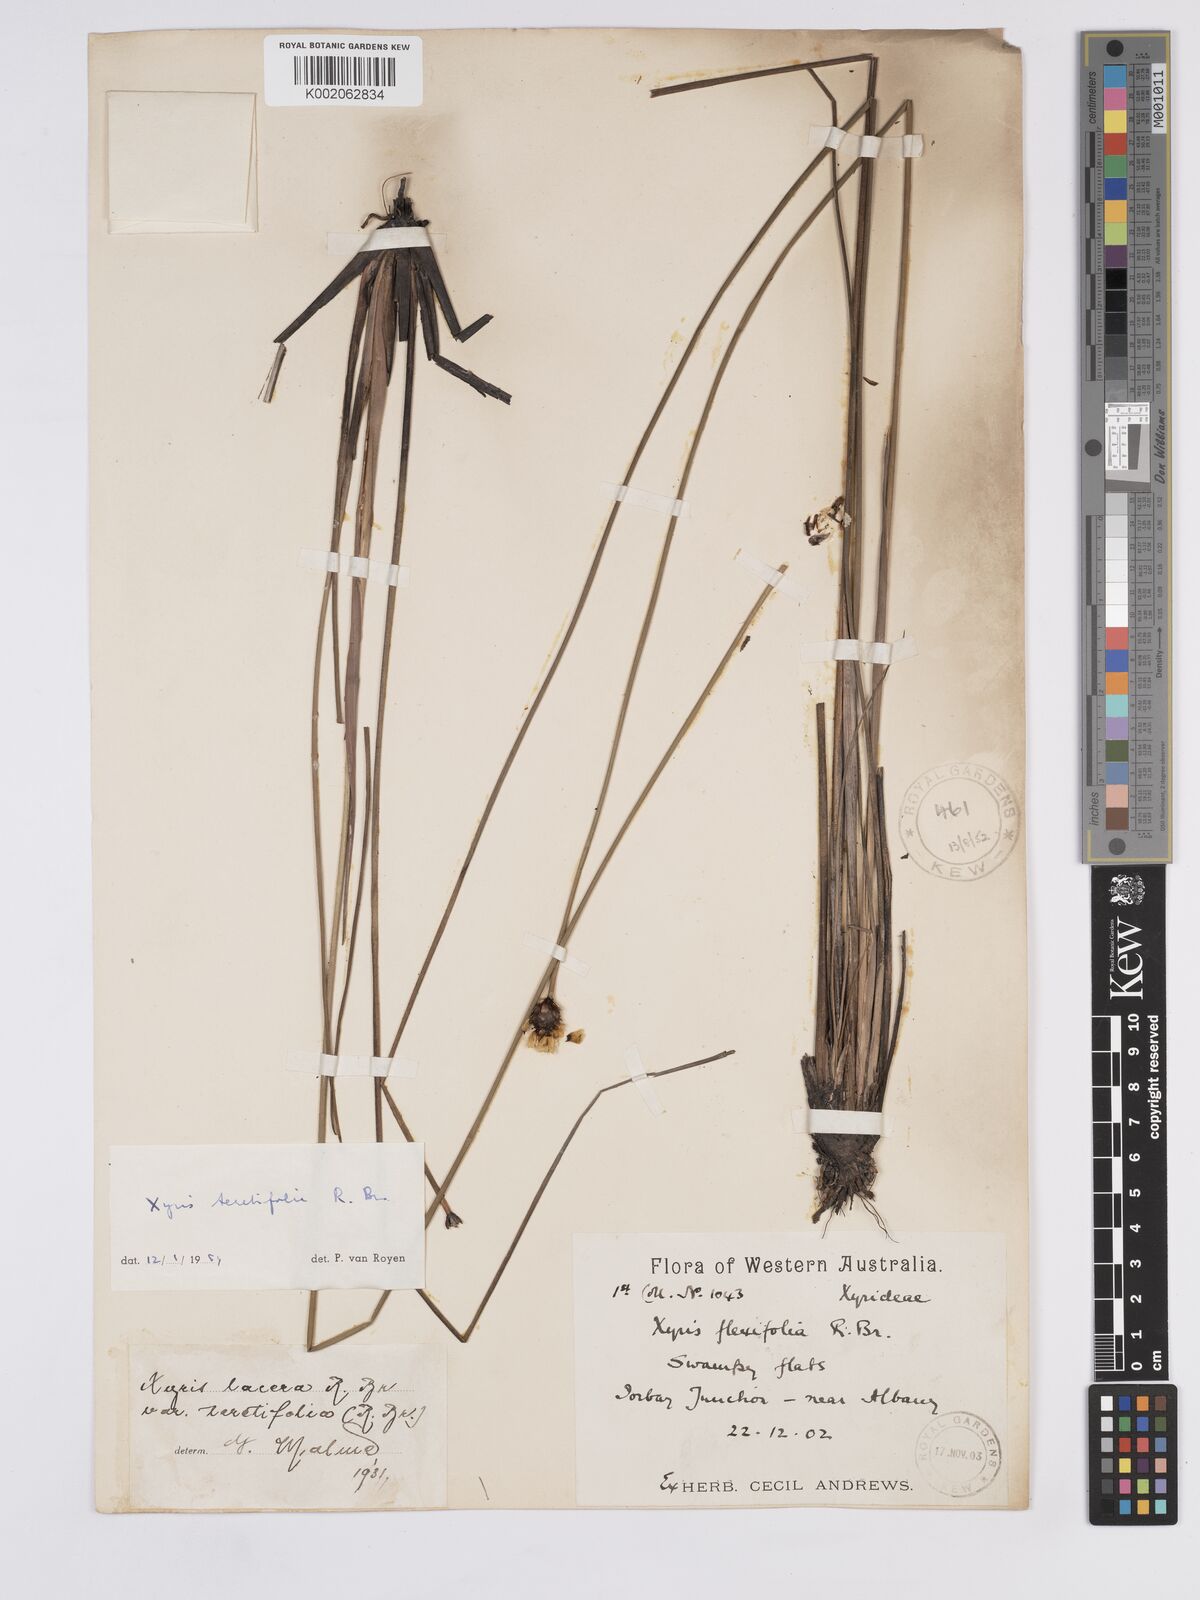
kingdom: Plantae
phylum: Tracheophyta
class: Liliopsida
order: Poales
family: Xyridaceae
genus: Xyris
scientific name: Xyris lacera
